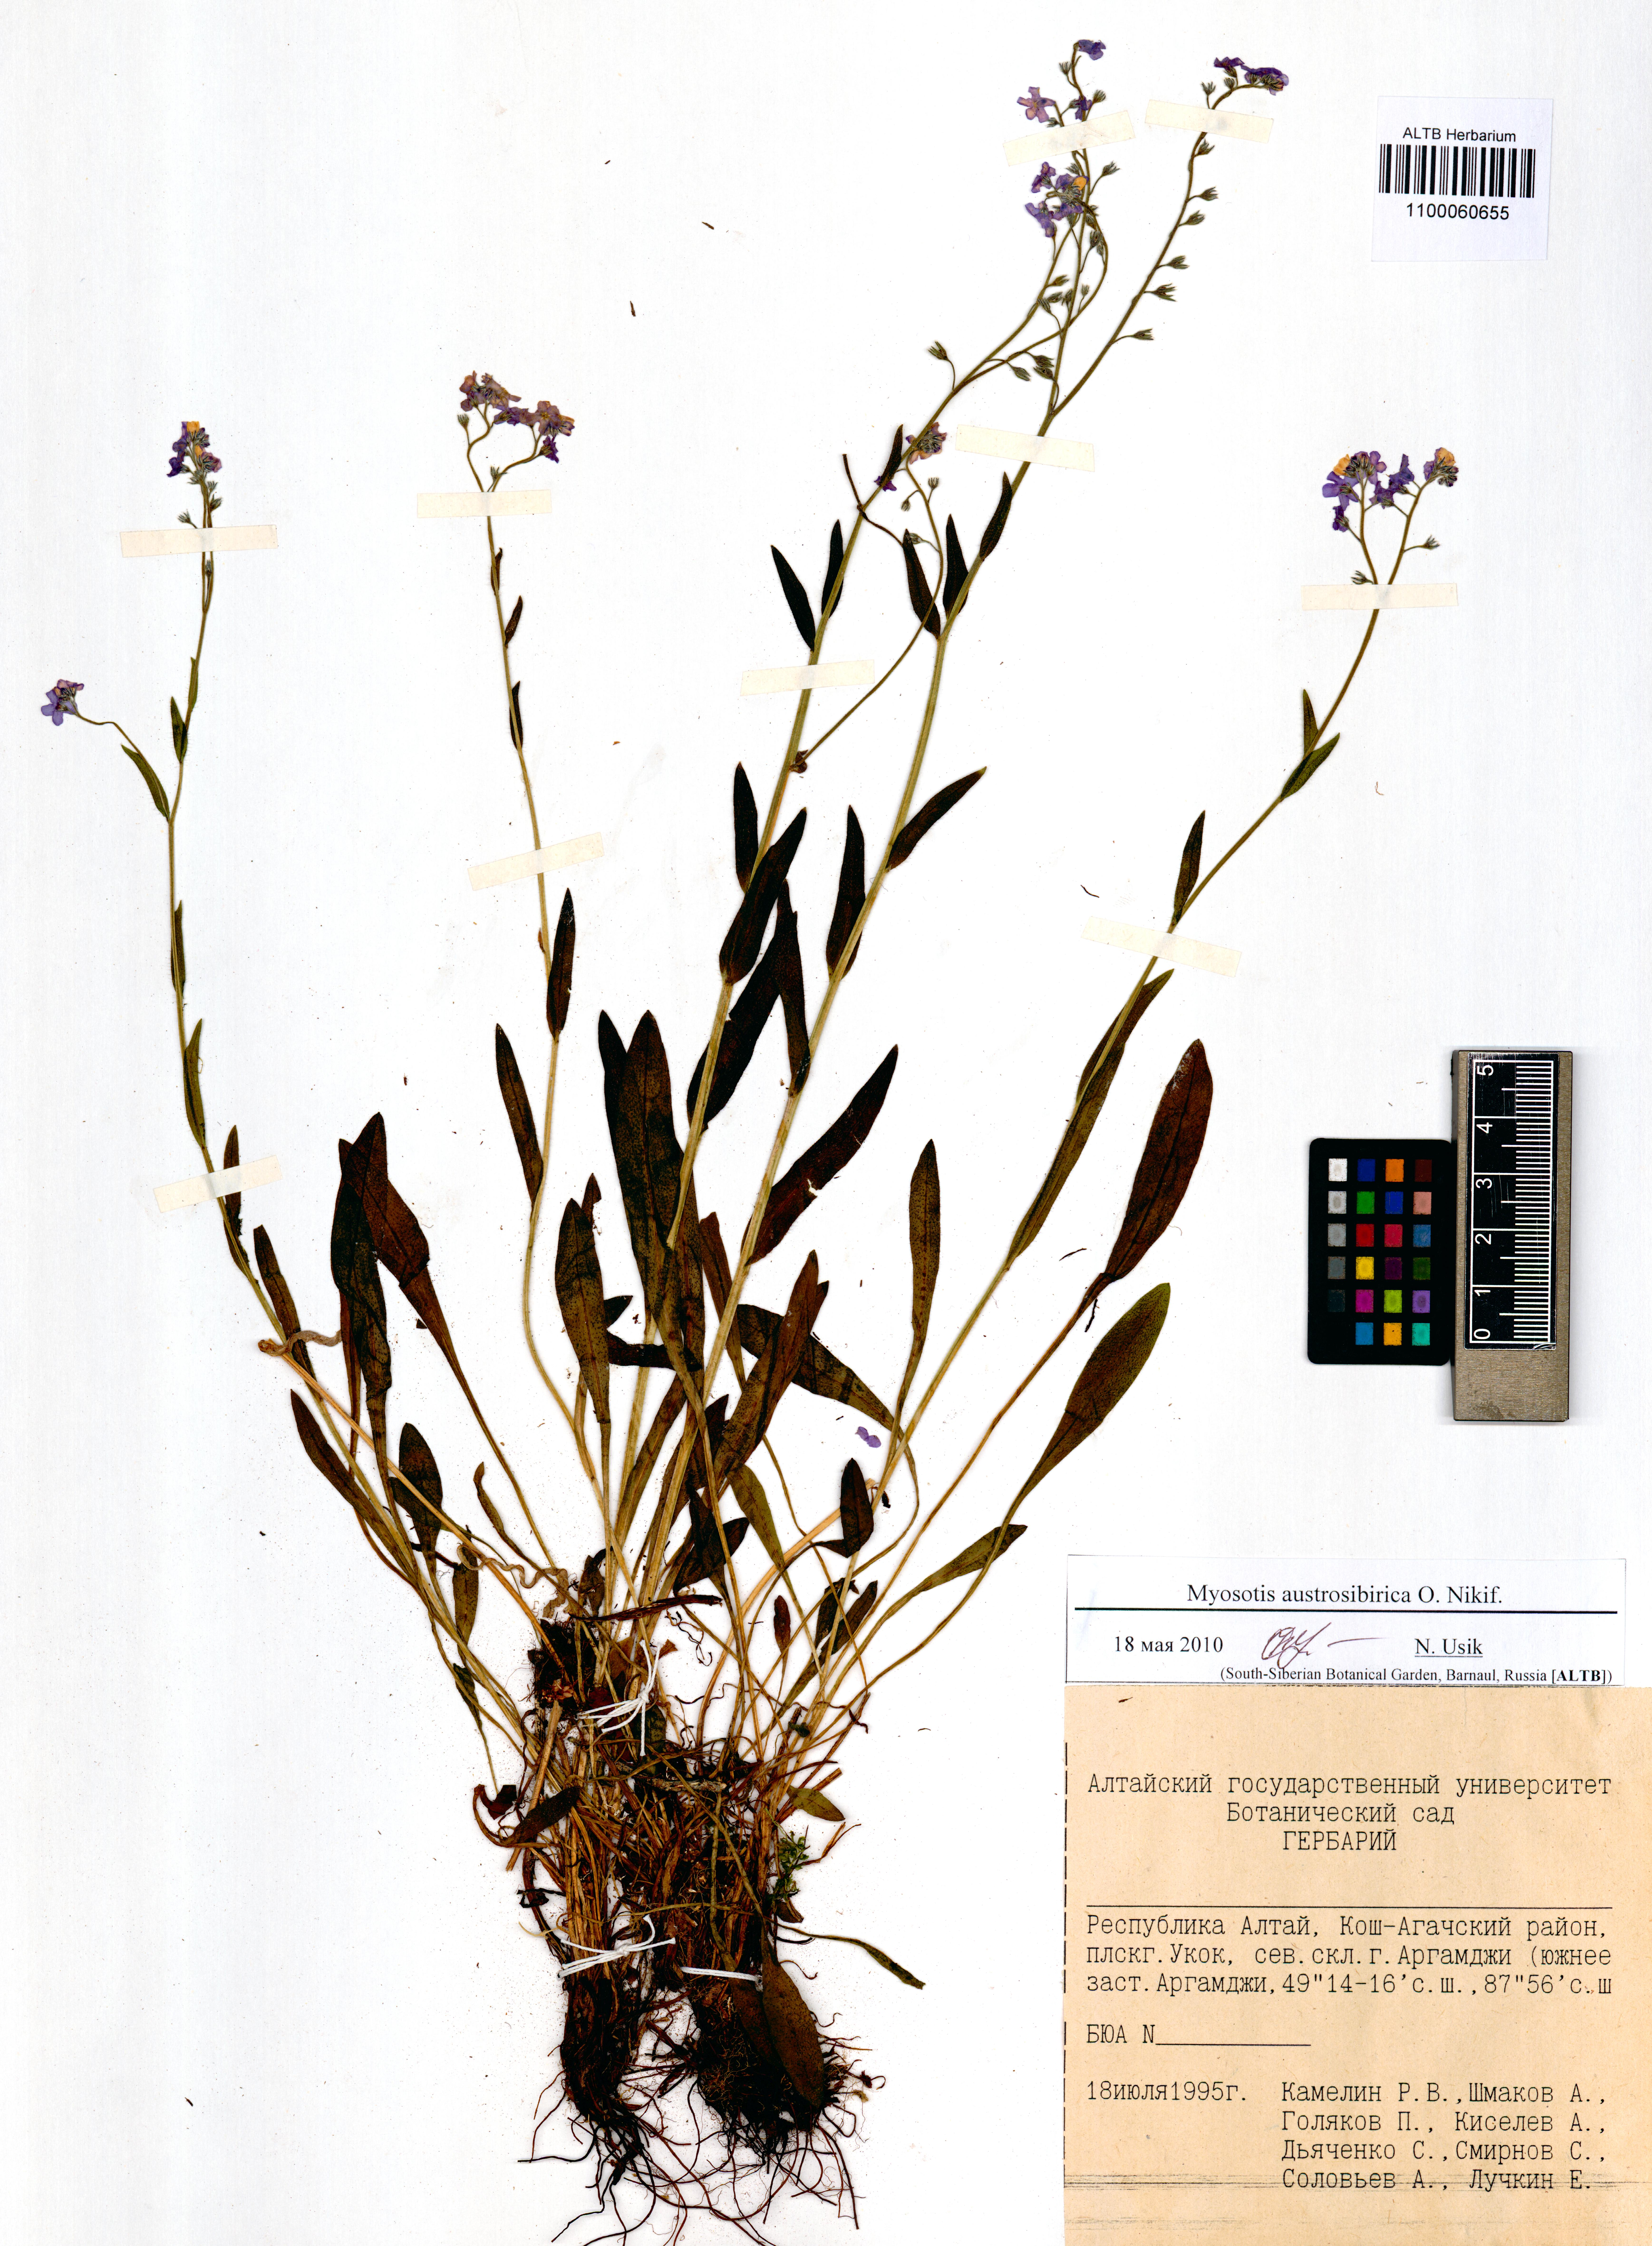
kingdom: Plantae
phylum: Tracheophyta
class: Magnoliopsida
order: Boraginales
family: Boraginaceae
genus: Myosotis
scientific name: Myosotis austrosibirica
